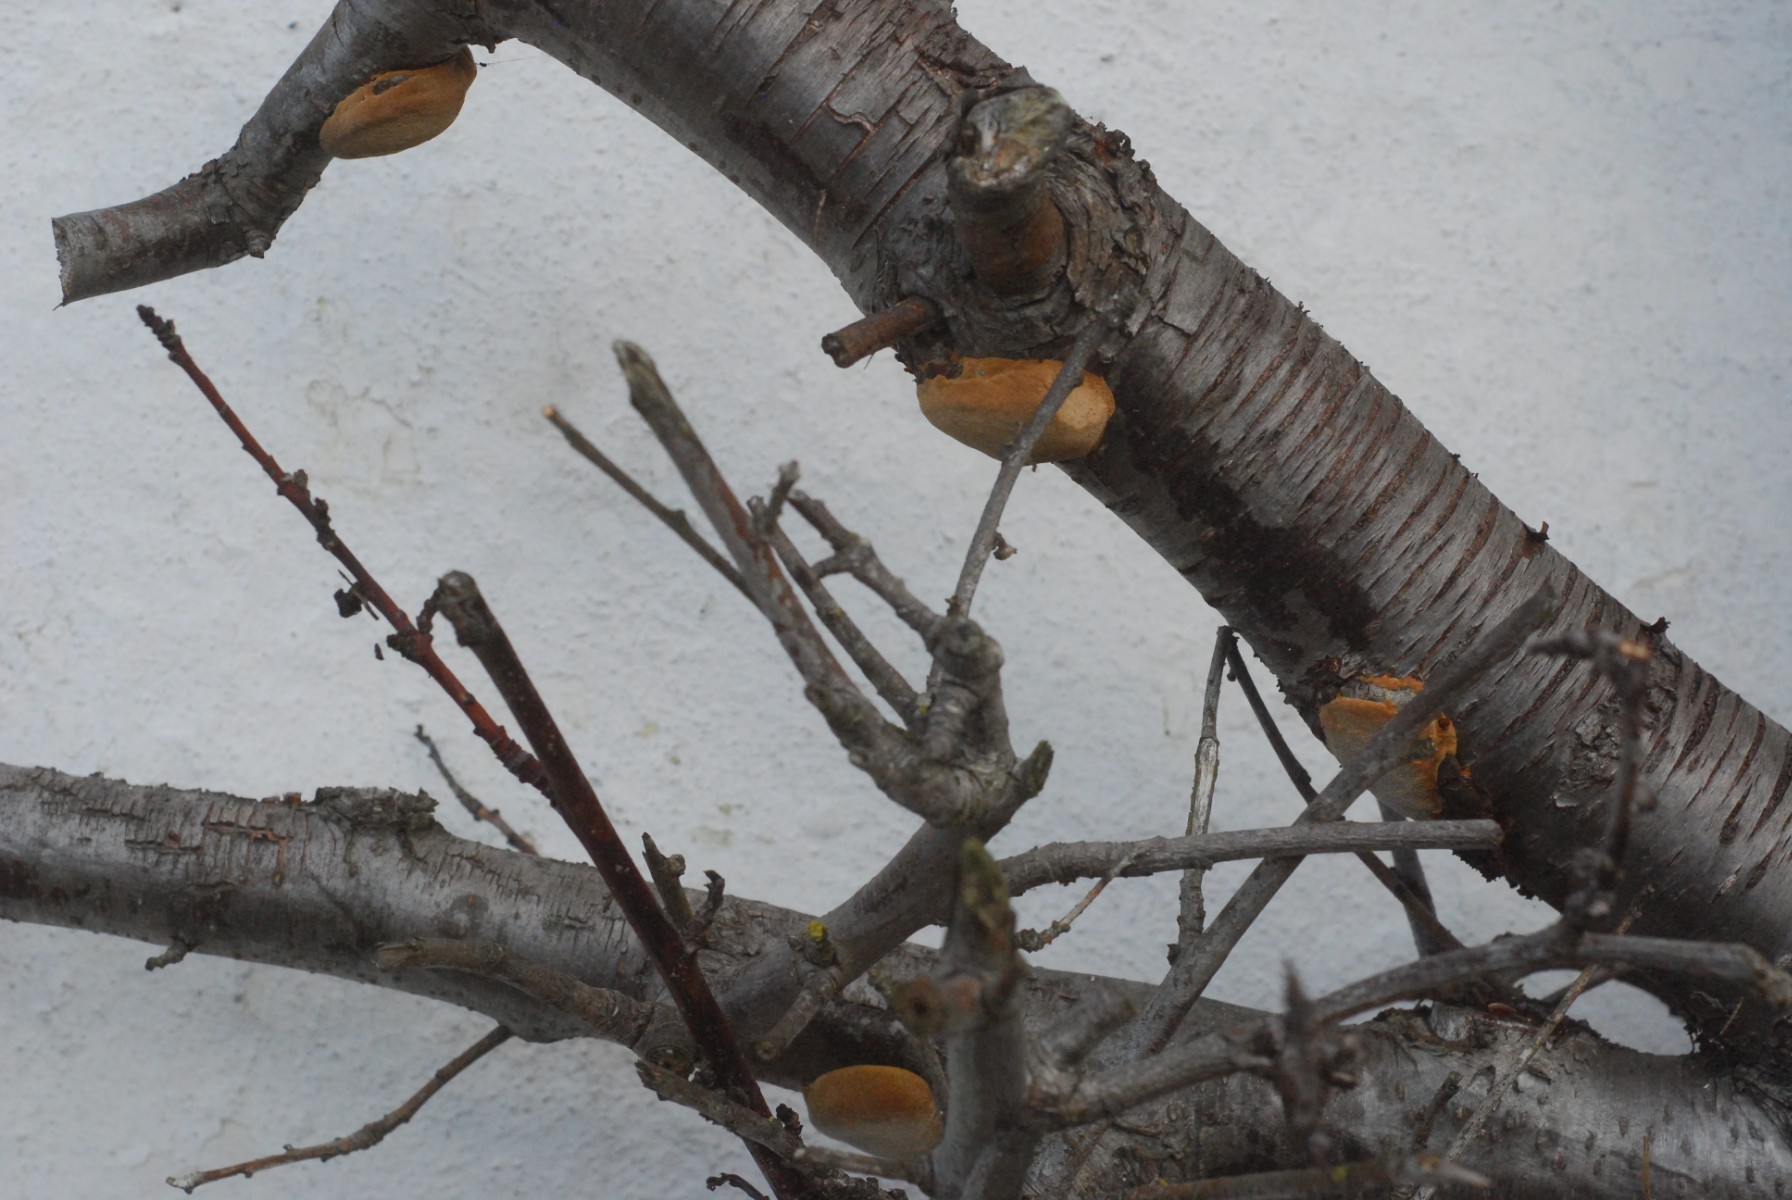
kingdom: Fungi
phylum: Basidiomycota
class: Agaricomycetes
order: Hymenochaetales
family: Hymenochaetaceae
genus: Phellinus
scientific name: Phellinus pomaceus
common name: blomme-ildporesvamp
